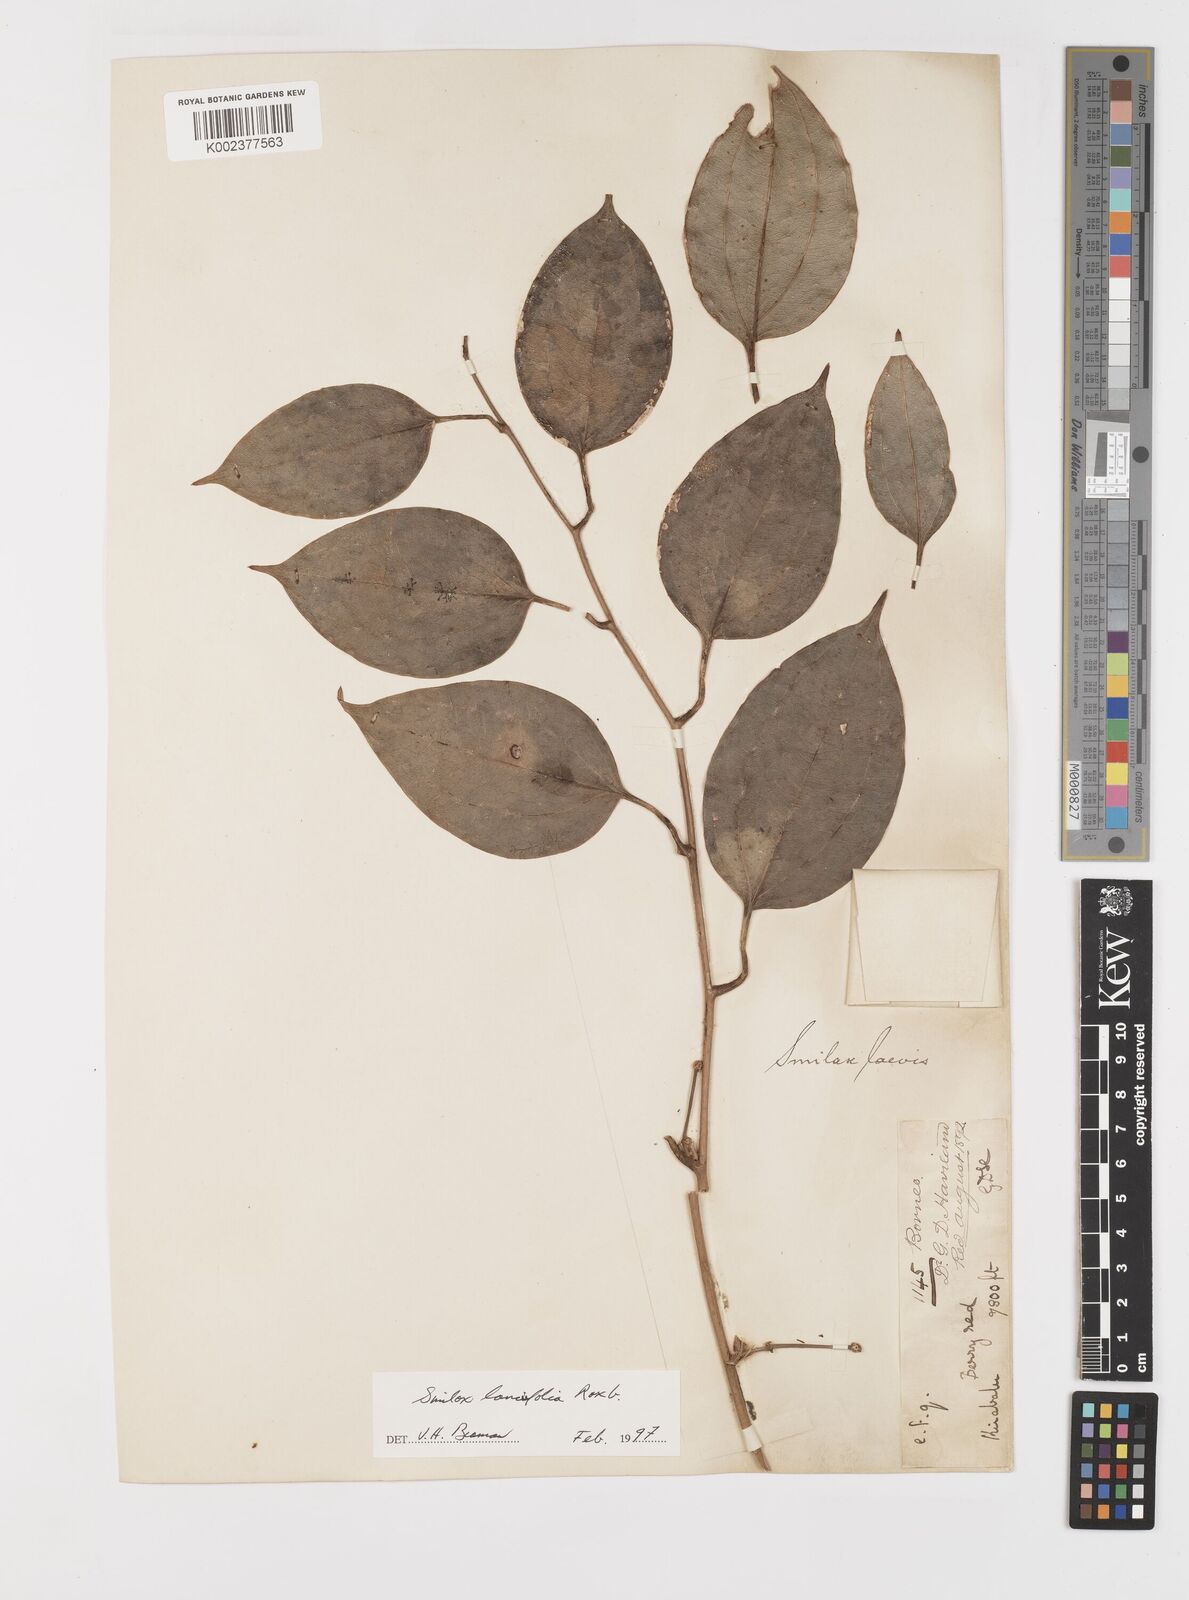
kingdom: Plantae
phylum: Tracheophyta
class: Liliopsida
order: Liliales
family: Smilacaceae
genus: Smilax
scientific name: Smilax lanceifolia
